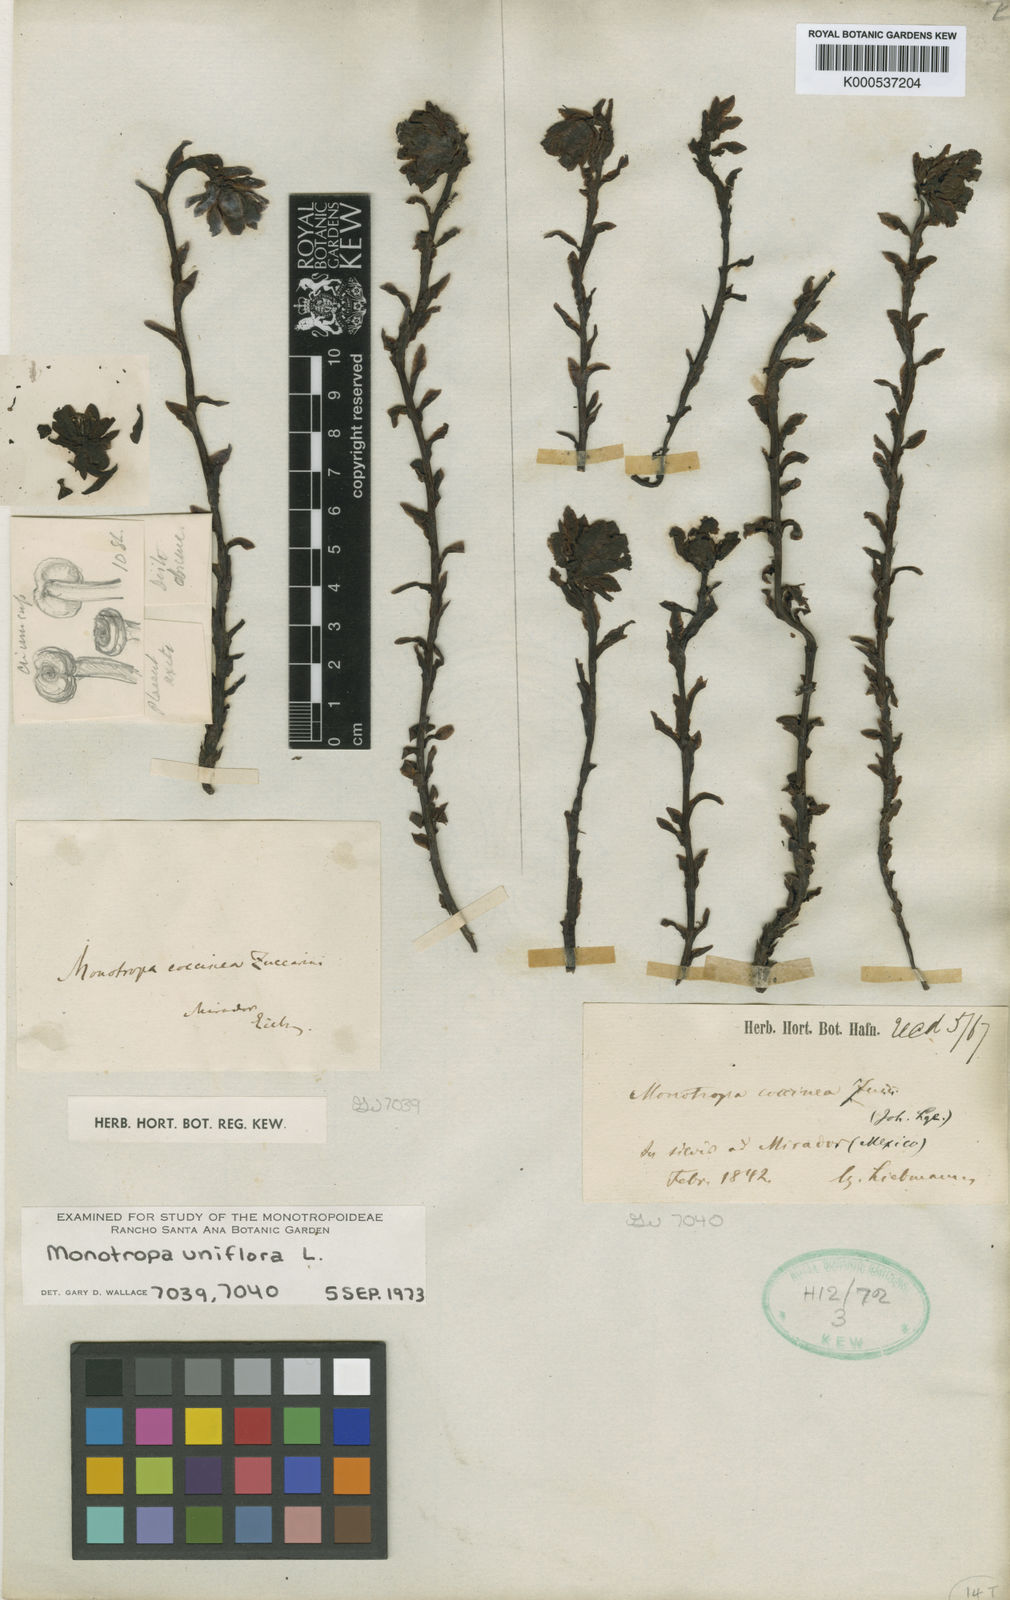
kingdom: Plantae
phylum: Tracheophyta
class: Magnoliopsida
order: Ericales
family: Ericaceae
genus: Monotropa
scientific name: Monotropa uniflora
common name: Convulsion root
